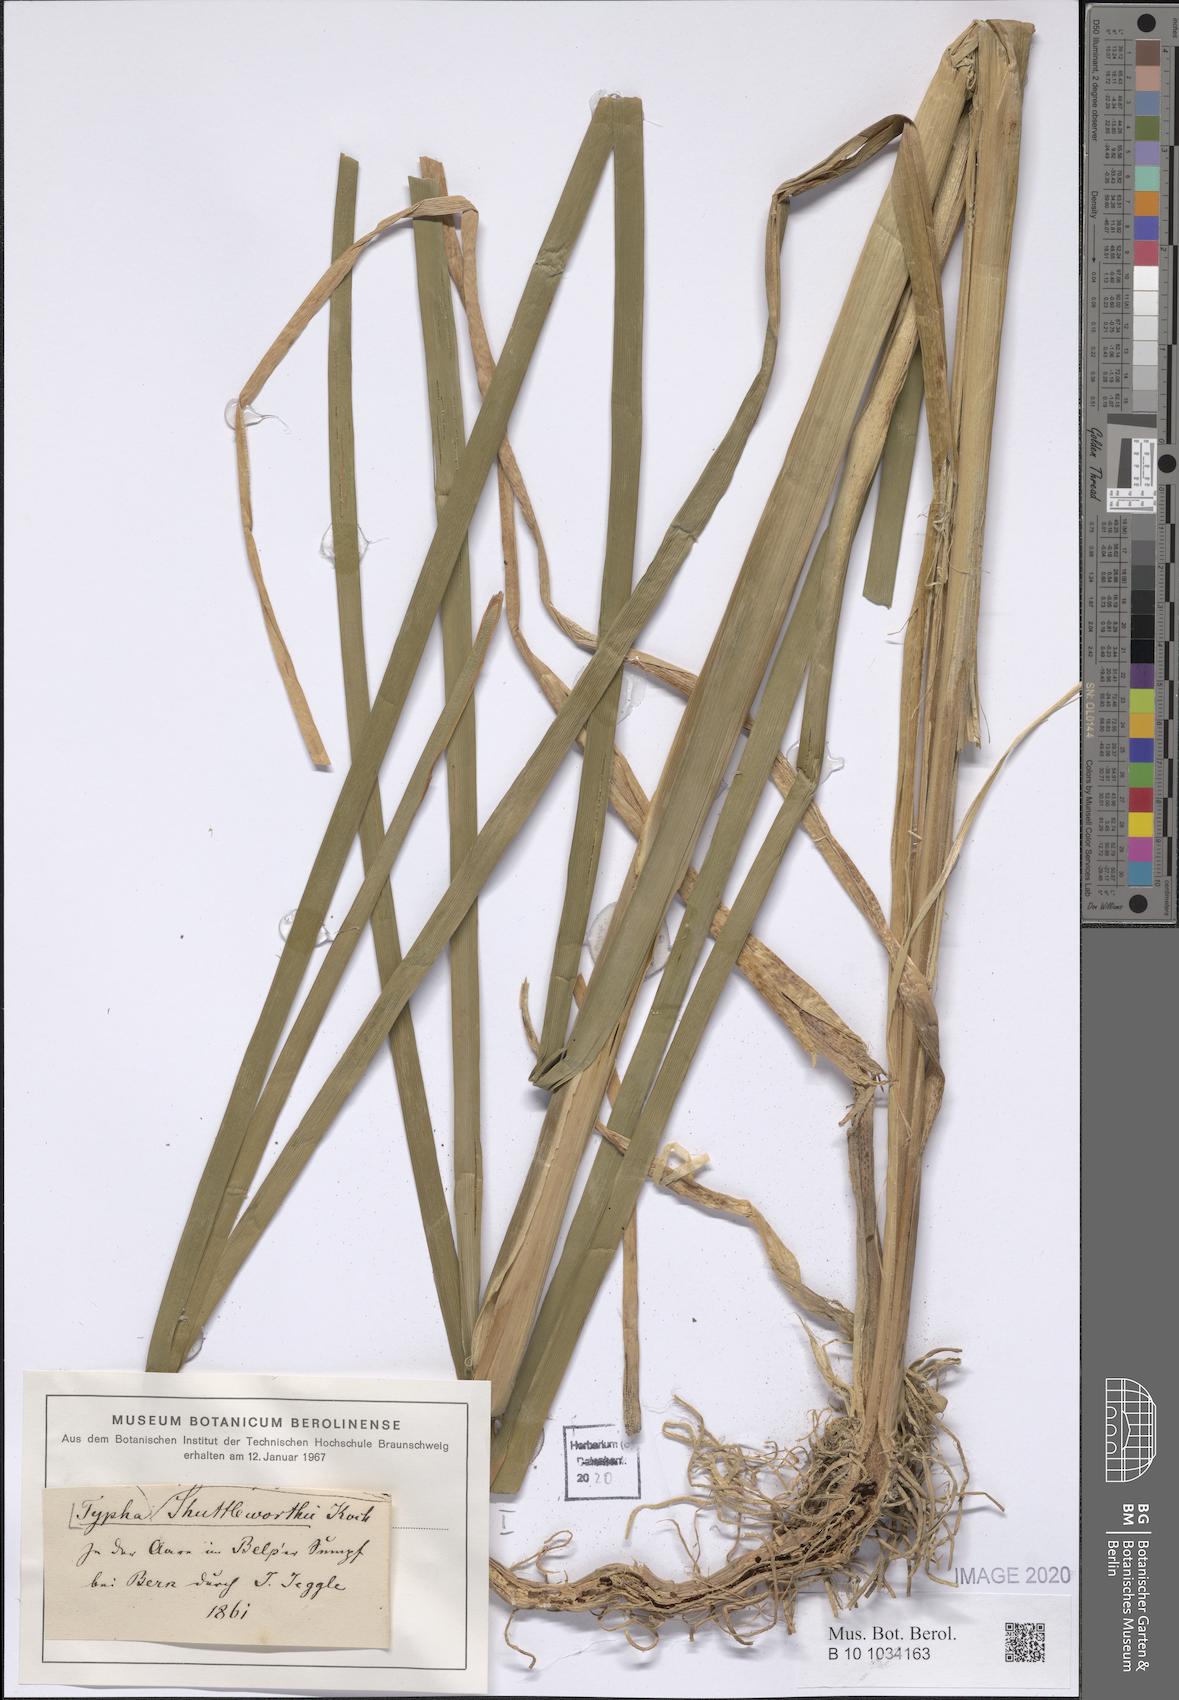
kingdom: Plantae
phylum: Tracheophyta
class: Liliopsida
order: Poales
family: Typhaceae
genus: Typha
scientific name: Typha shuttleworthii
